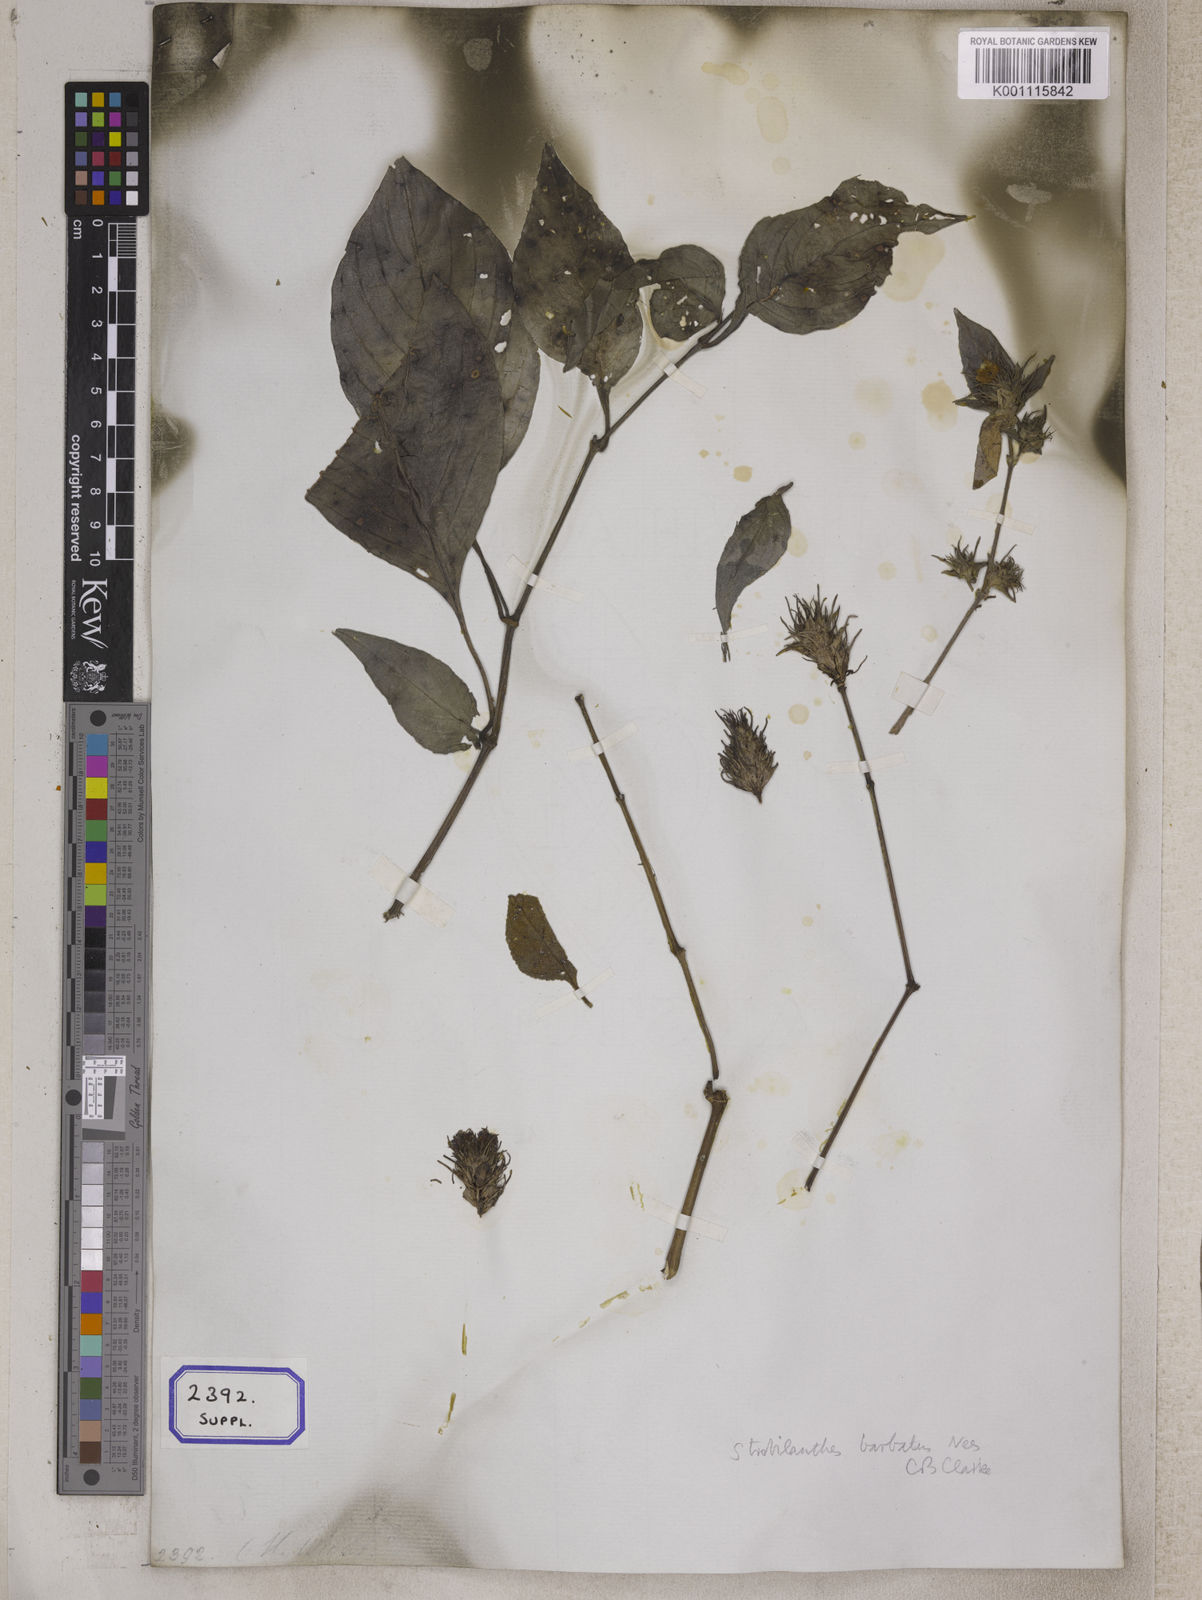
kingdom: Plantae
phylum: Tracheophyta
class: Magnoliopsida
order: Lamiales
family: Acanthaceae
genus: Ruellia
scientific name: Ruellia
